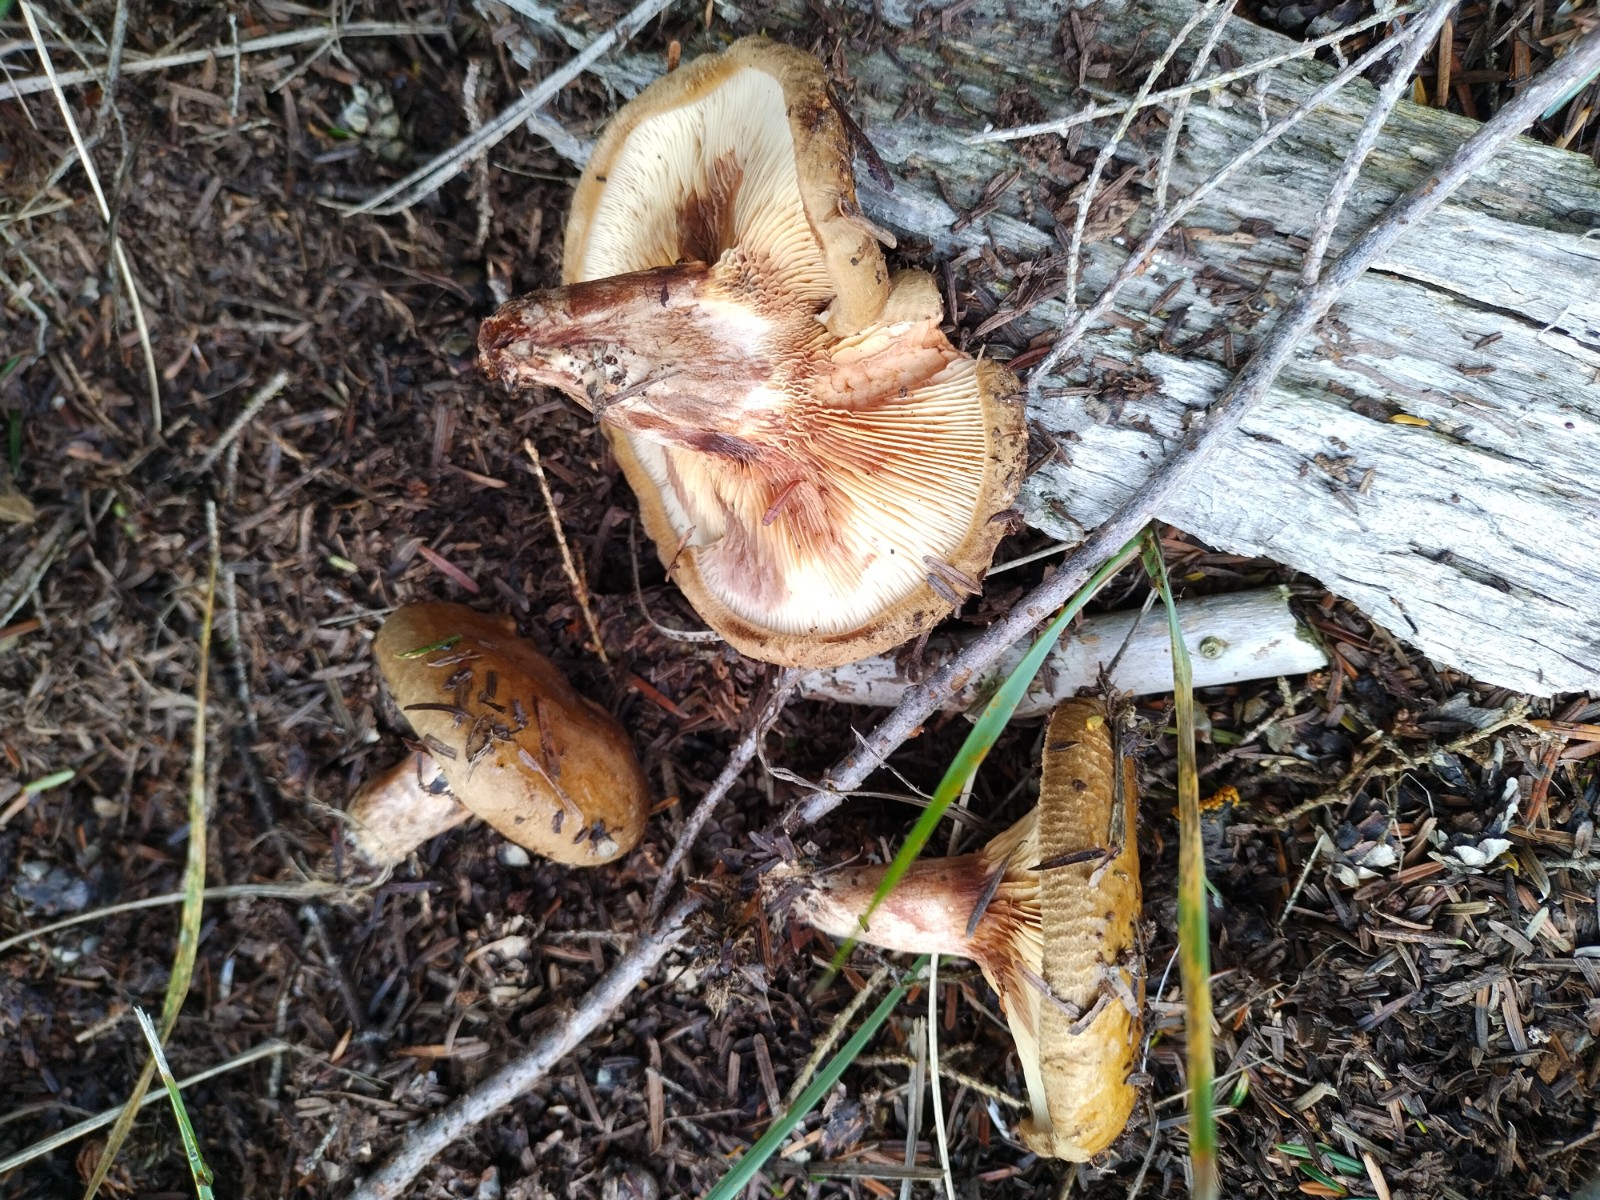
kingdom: Fungi
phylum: Basidiomycota
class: Agaricomycetes
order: Boletales
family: Paxillaceae
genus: Paxillus
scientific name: Paxillus involutus
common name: almindelig netbladhat
